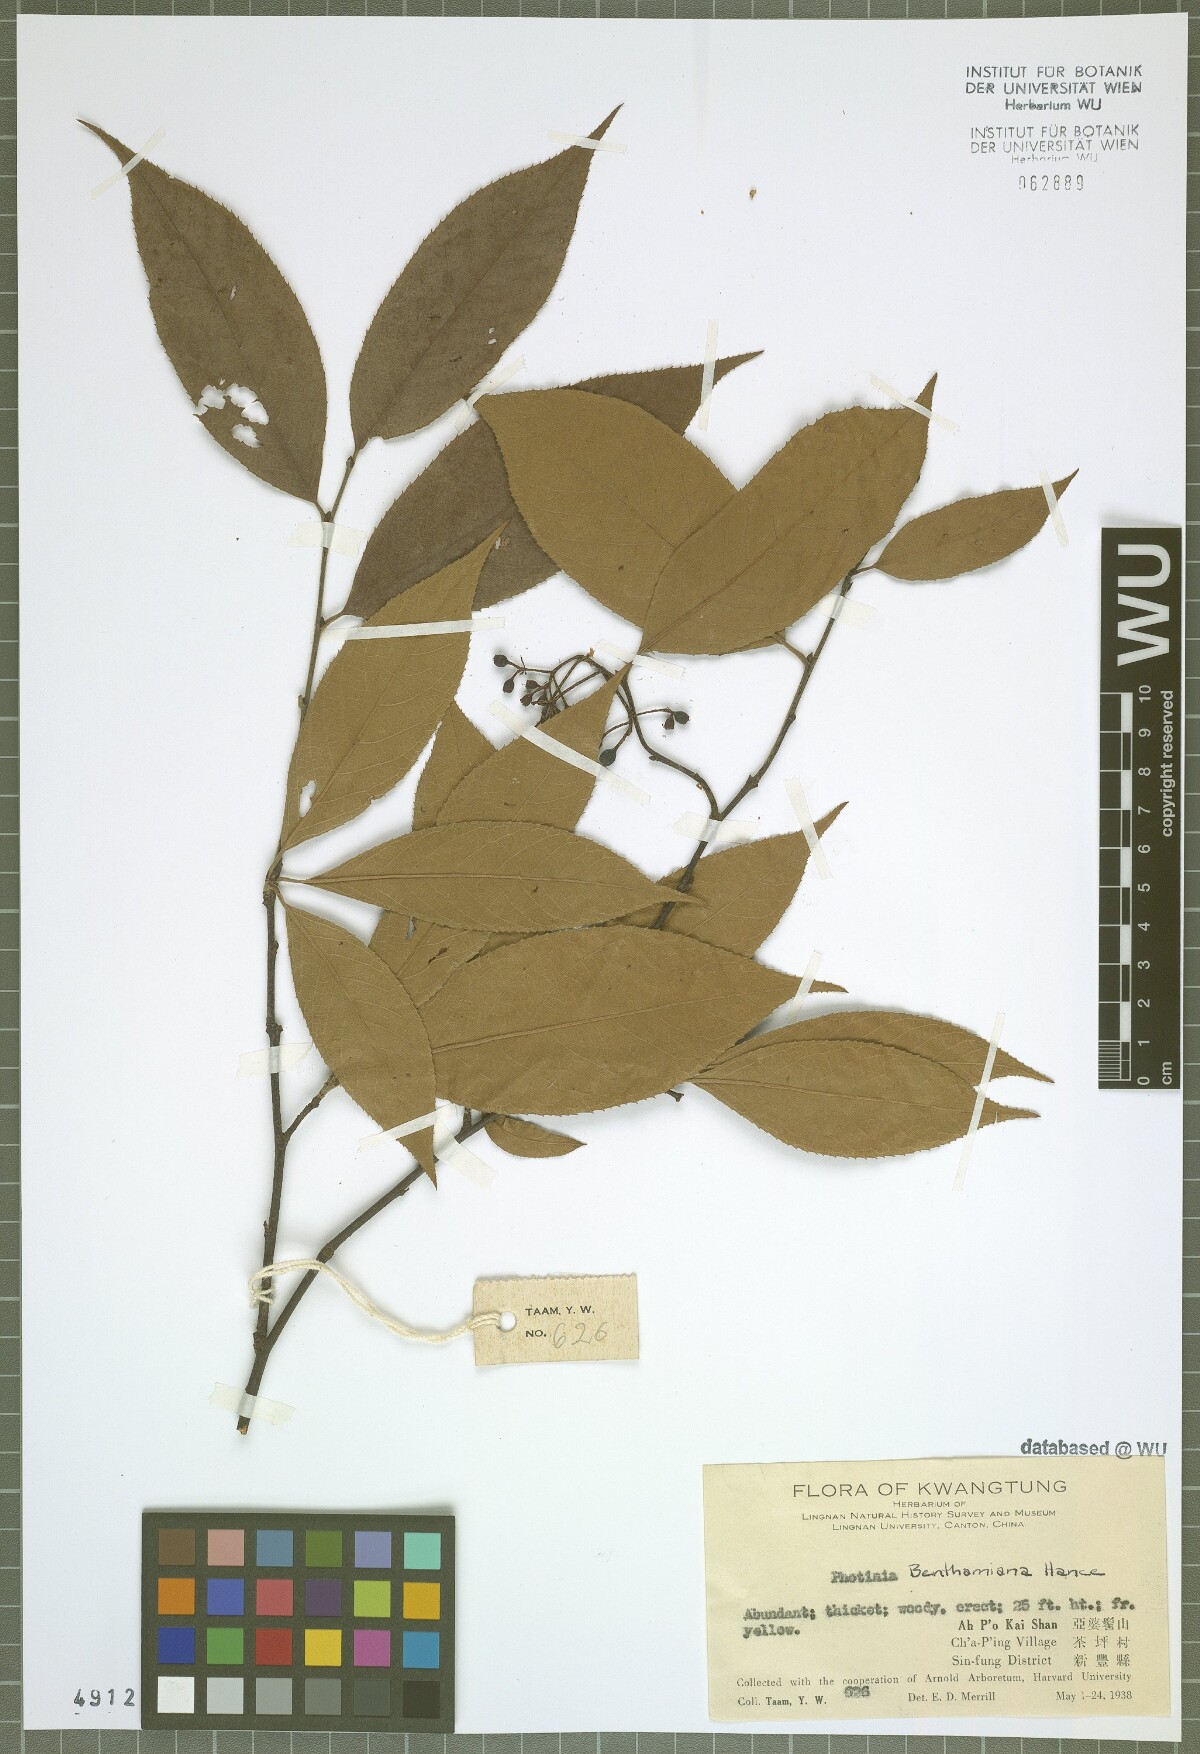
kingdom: Plantae
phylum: Tracheophyta
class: Magnoliopsida
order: Rosales
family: Rosaceae
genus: Pourthiaea
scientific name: Pourthiaea benthamiana
